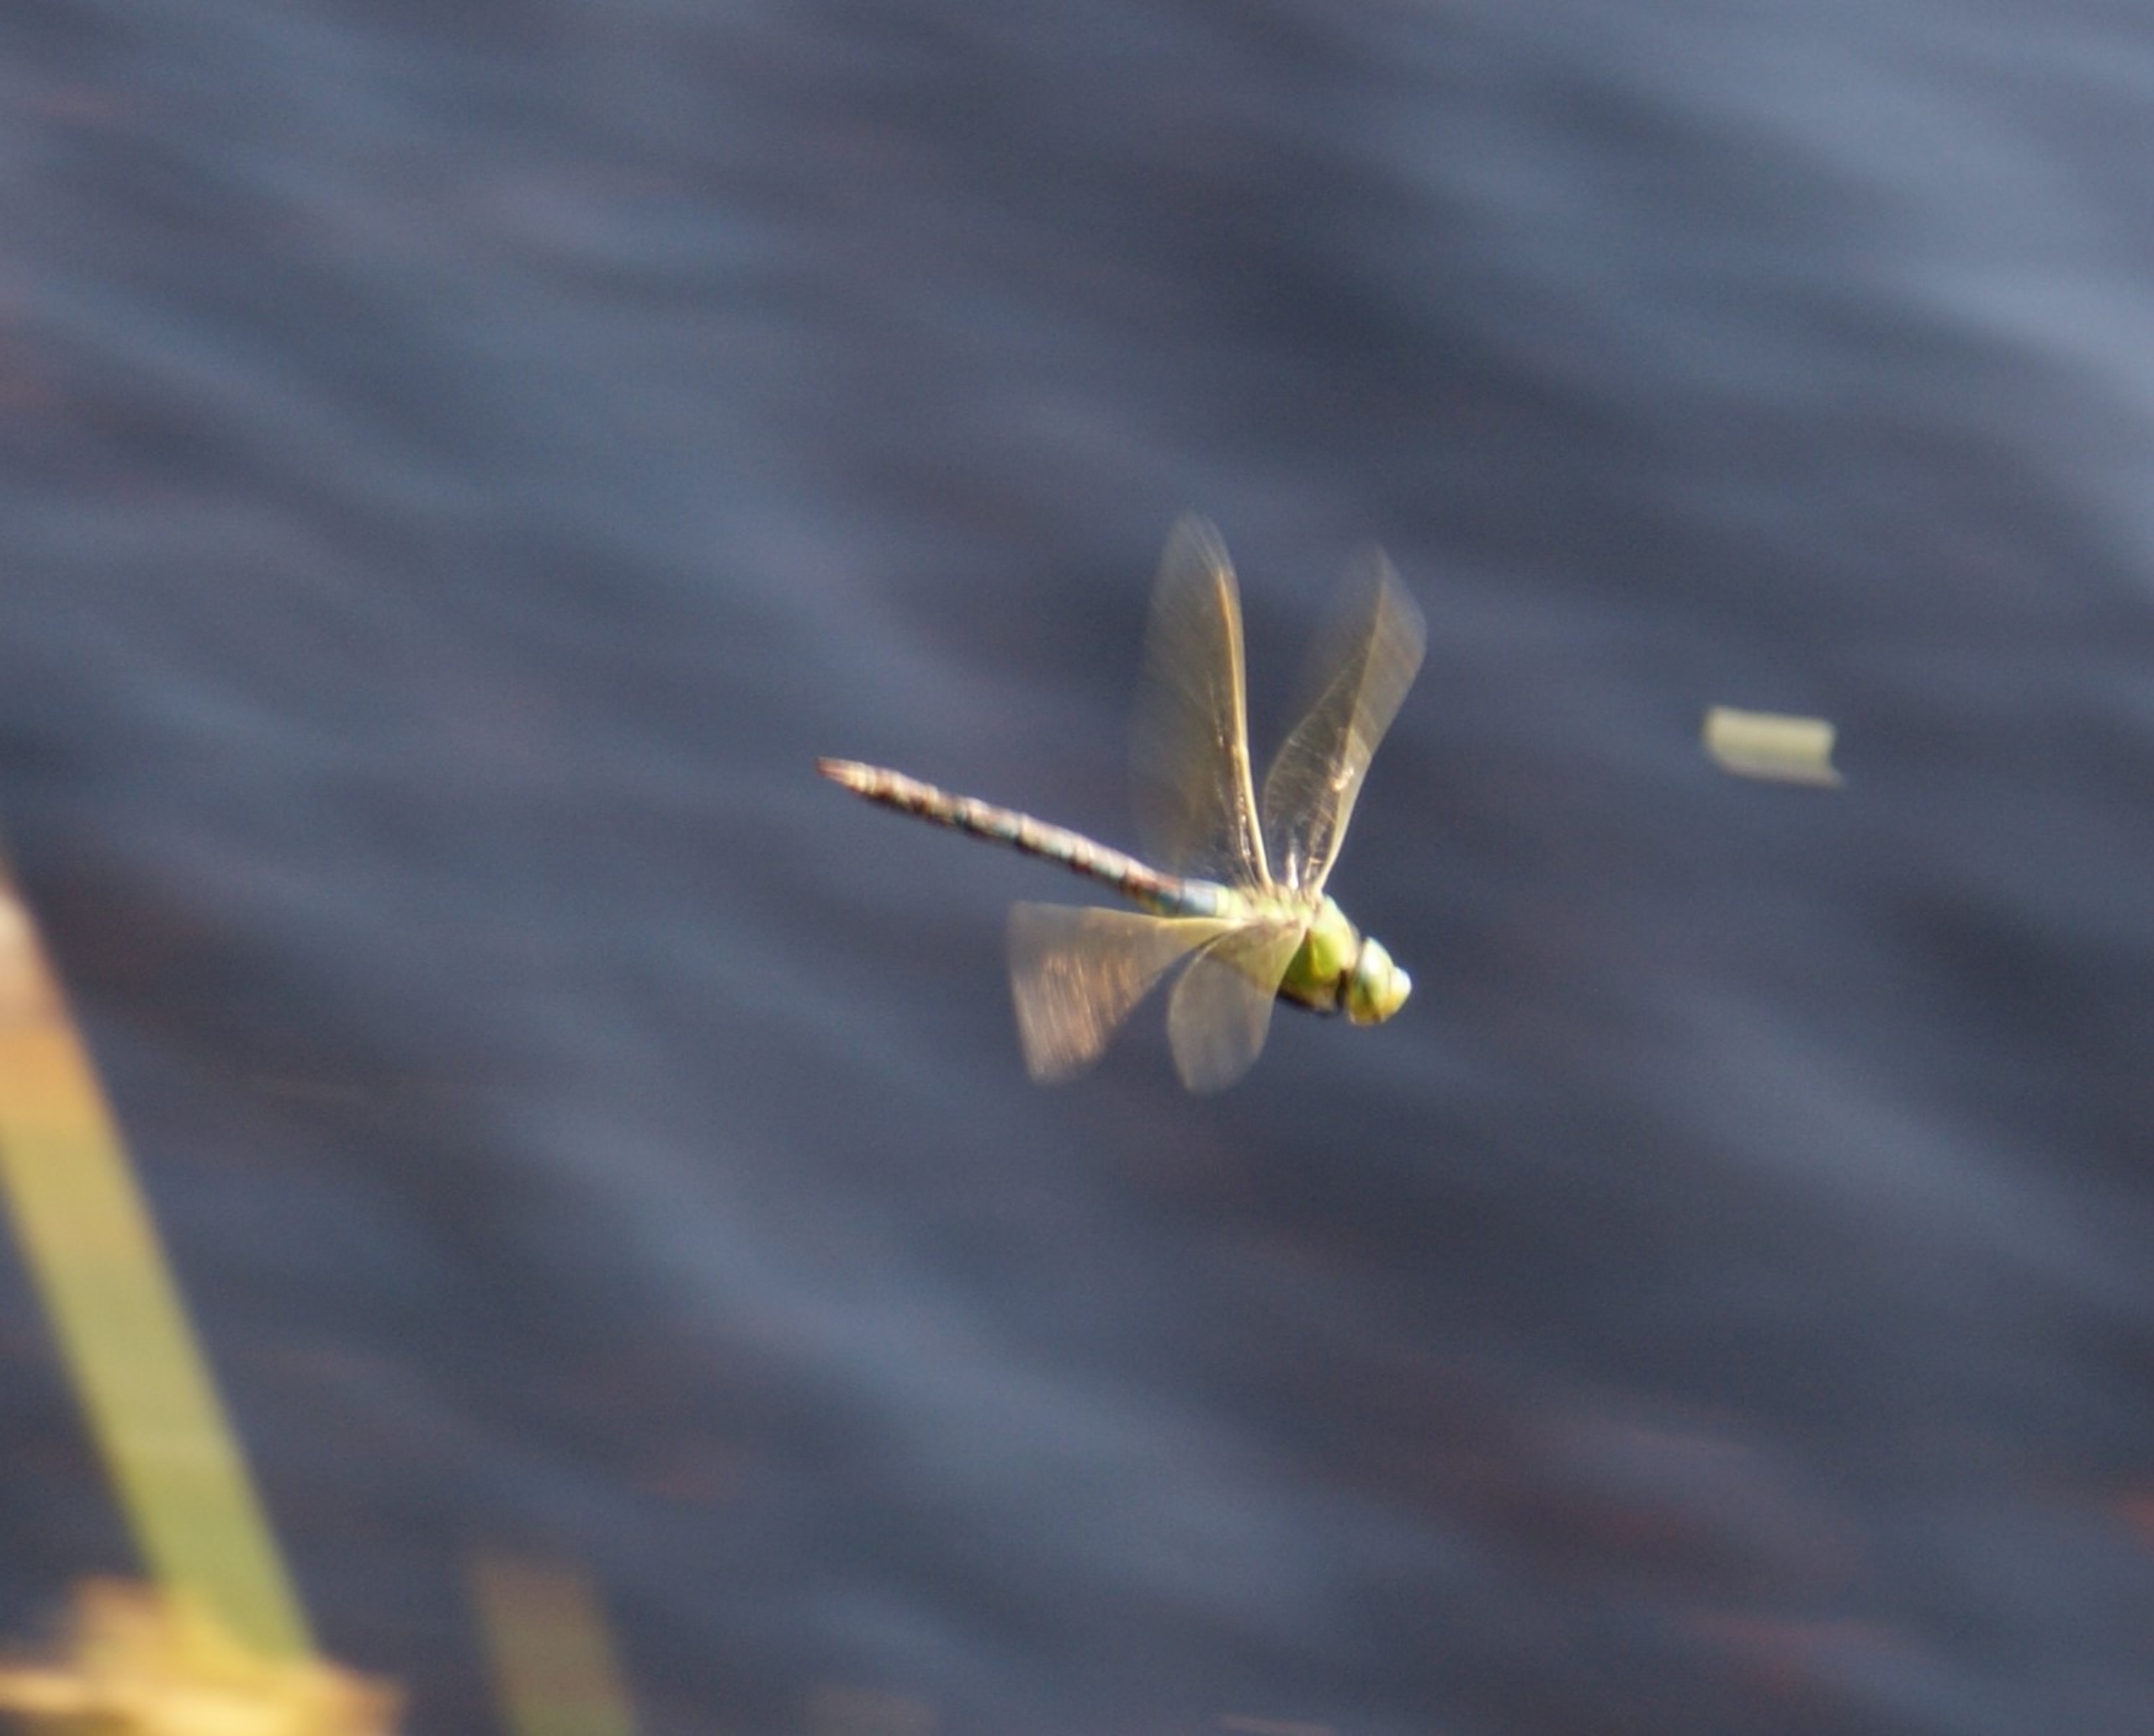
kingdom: Animalia
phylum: Arthropoda
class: Insecta
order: Odonata
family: Aeshnidae
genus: Anax
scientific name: Anax imperator
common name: Stor kejserguldsmed
